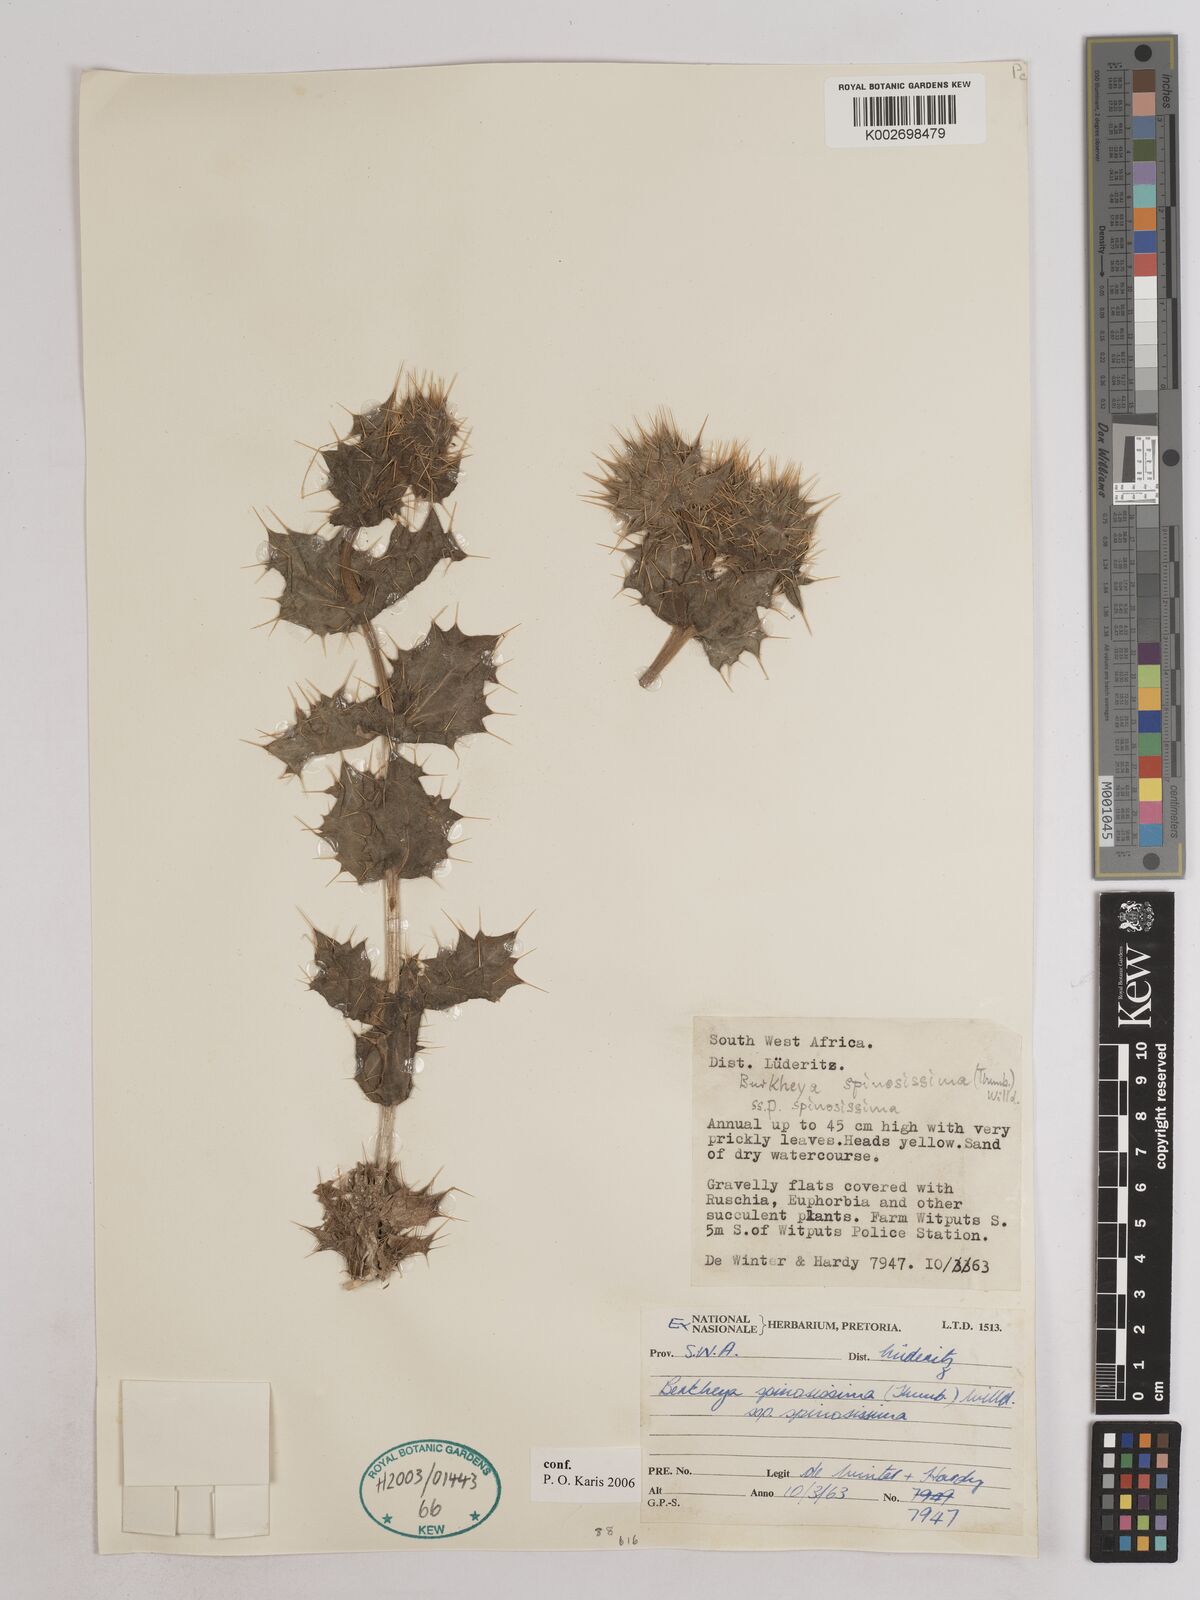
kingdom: Plantae
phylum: Tracheophyta
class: Magnoliopsida
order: Asterales
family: Asteraceae
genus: Berkheya
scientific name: Berkheya spinosissima
